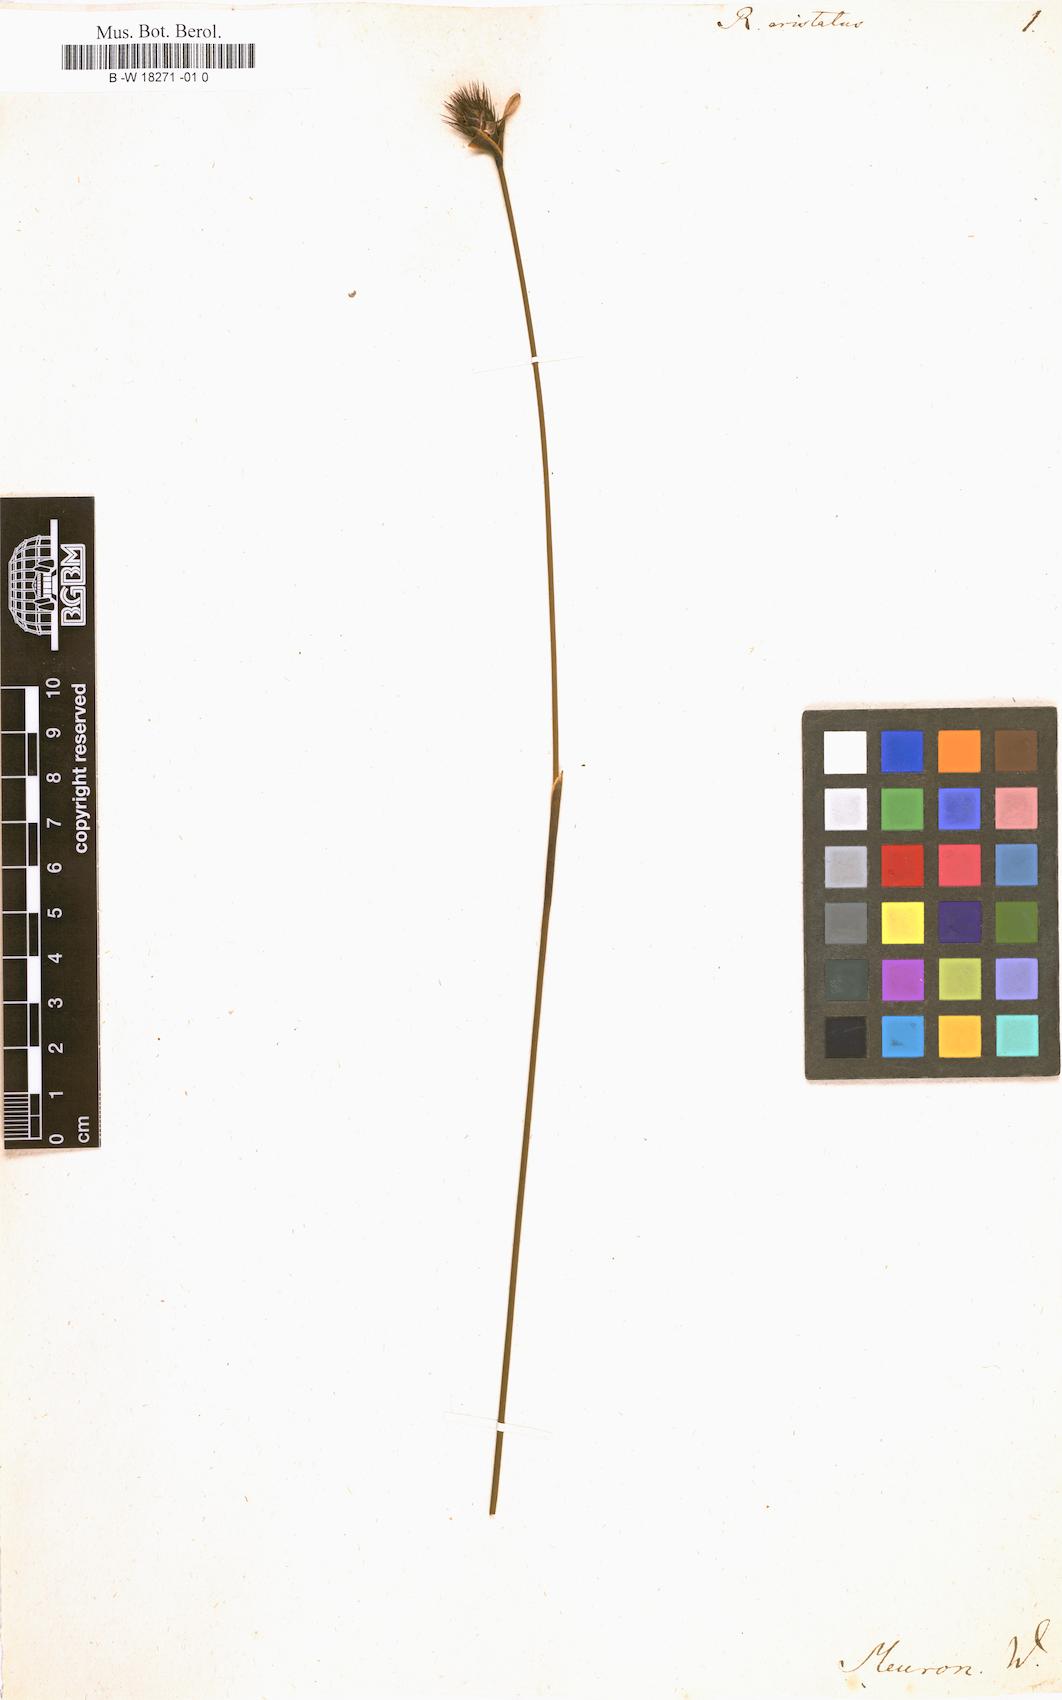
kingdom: Plantae
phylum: Tracheophyta
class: Liliopsida
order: Poales
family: Restionaceae
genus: Hypodiscus
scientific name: Hypodiscus aristatus
